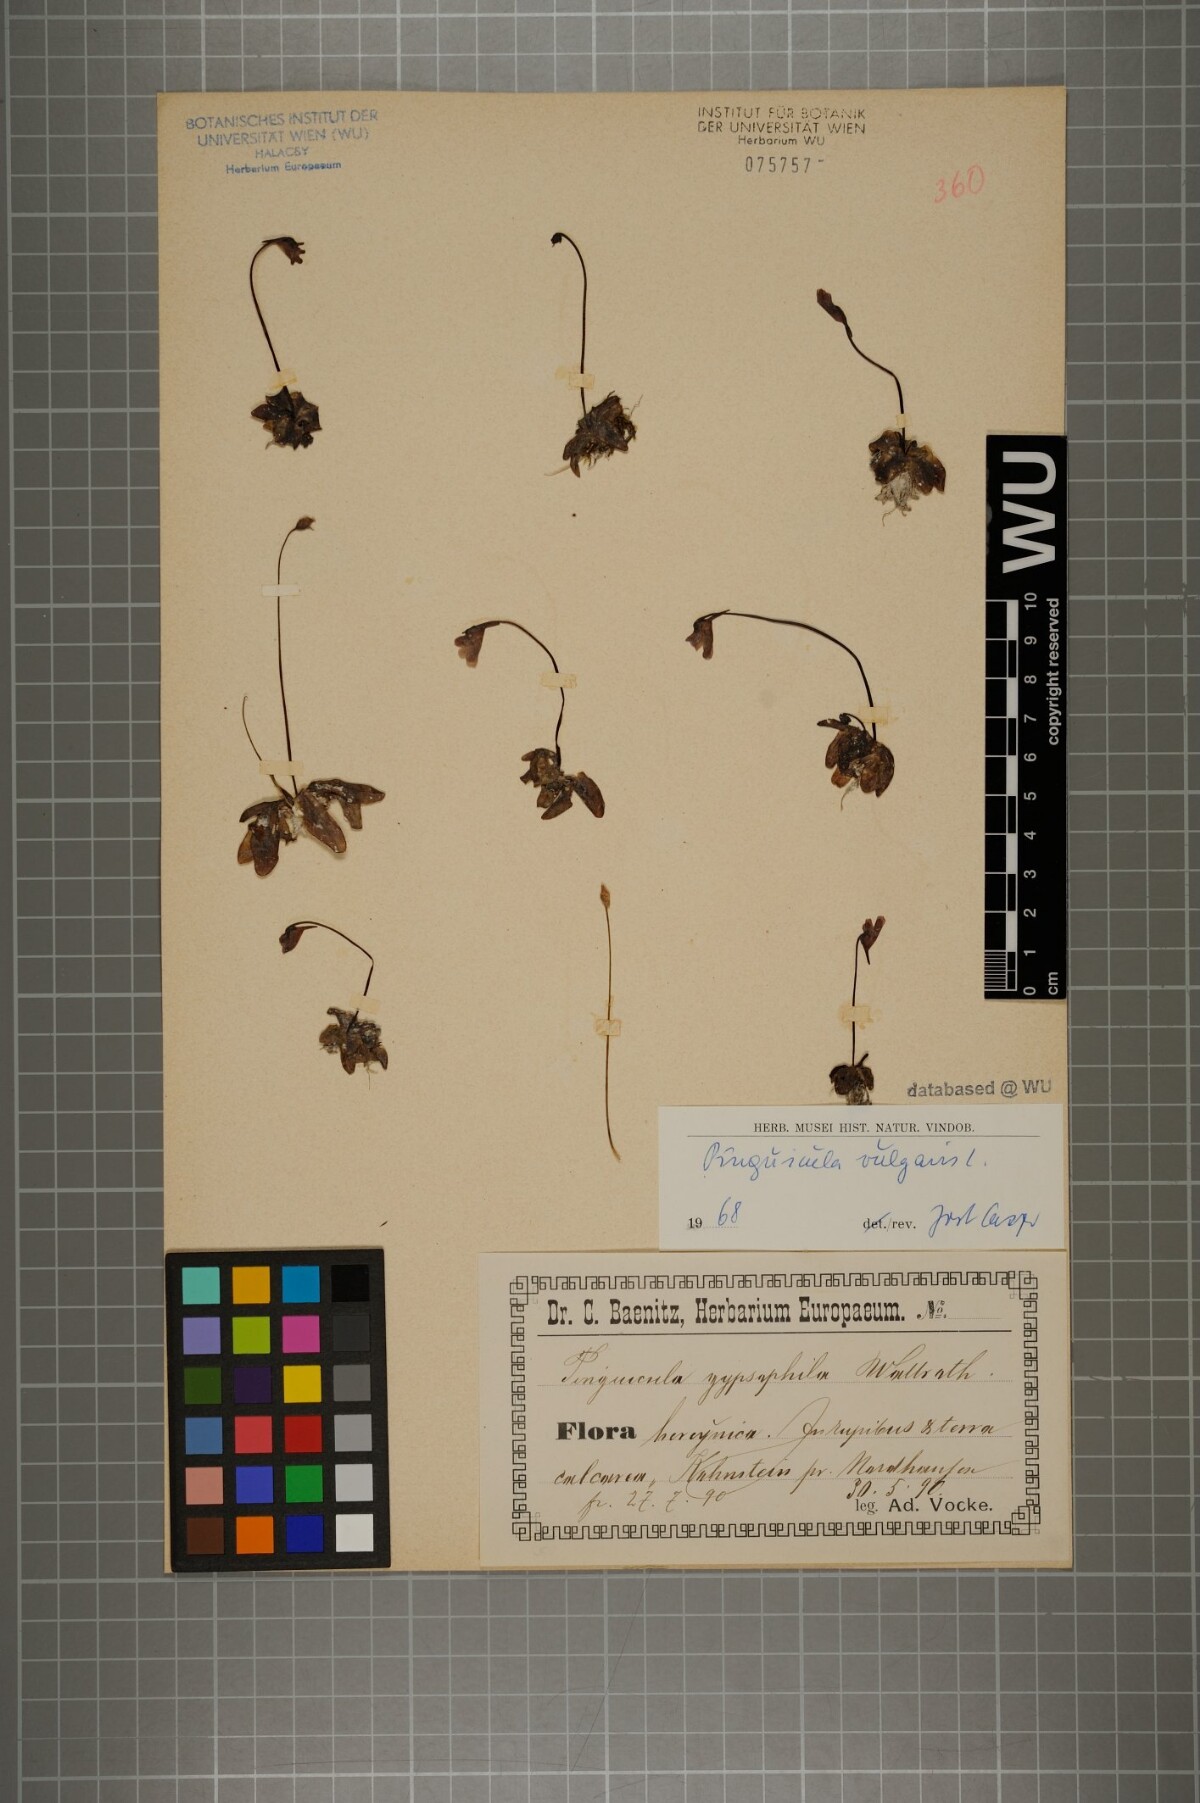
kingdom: Plantae
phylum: Tracheophyta
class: Magnoliopsida
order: Lamiales
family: Lentibulariaceae
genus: Pinguicula
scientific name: Pinguicula vulgaris
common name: Common butterwort
